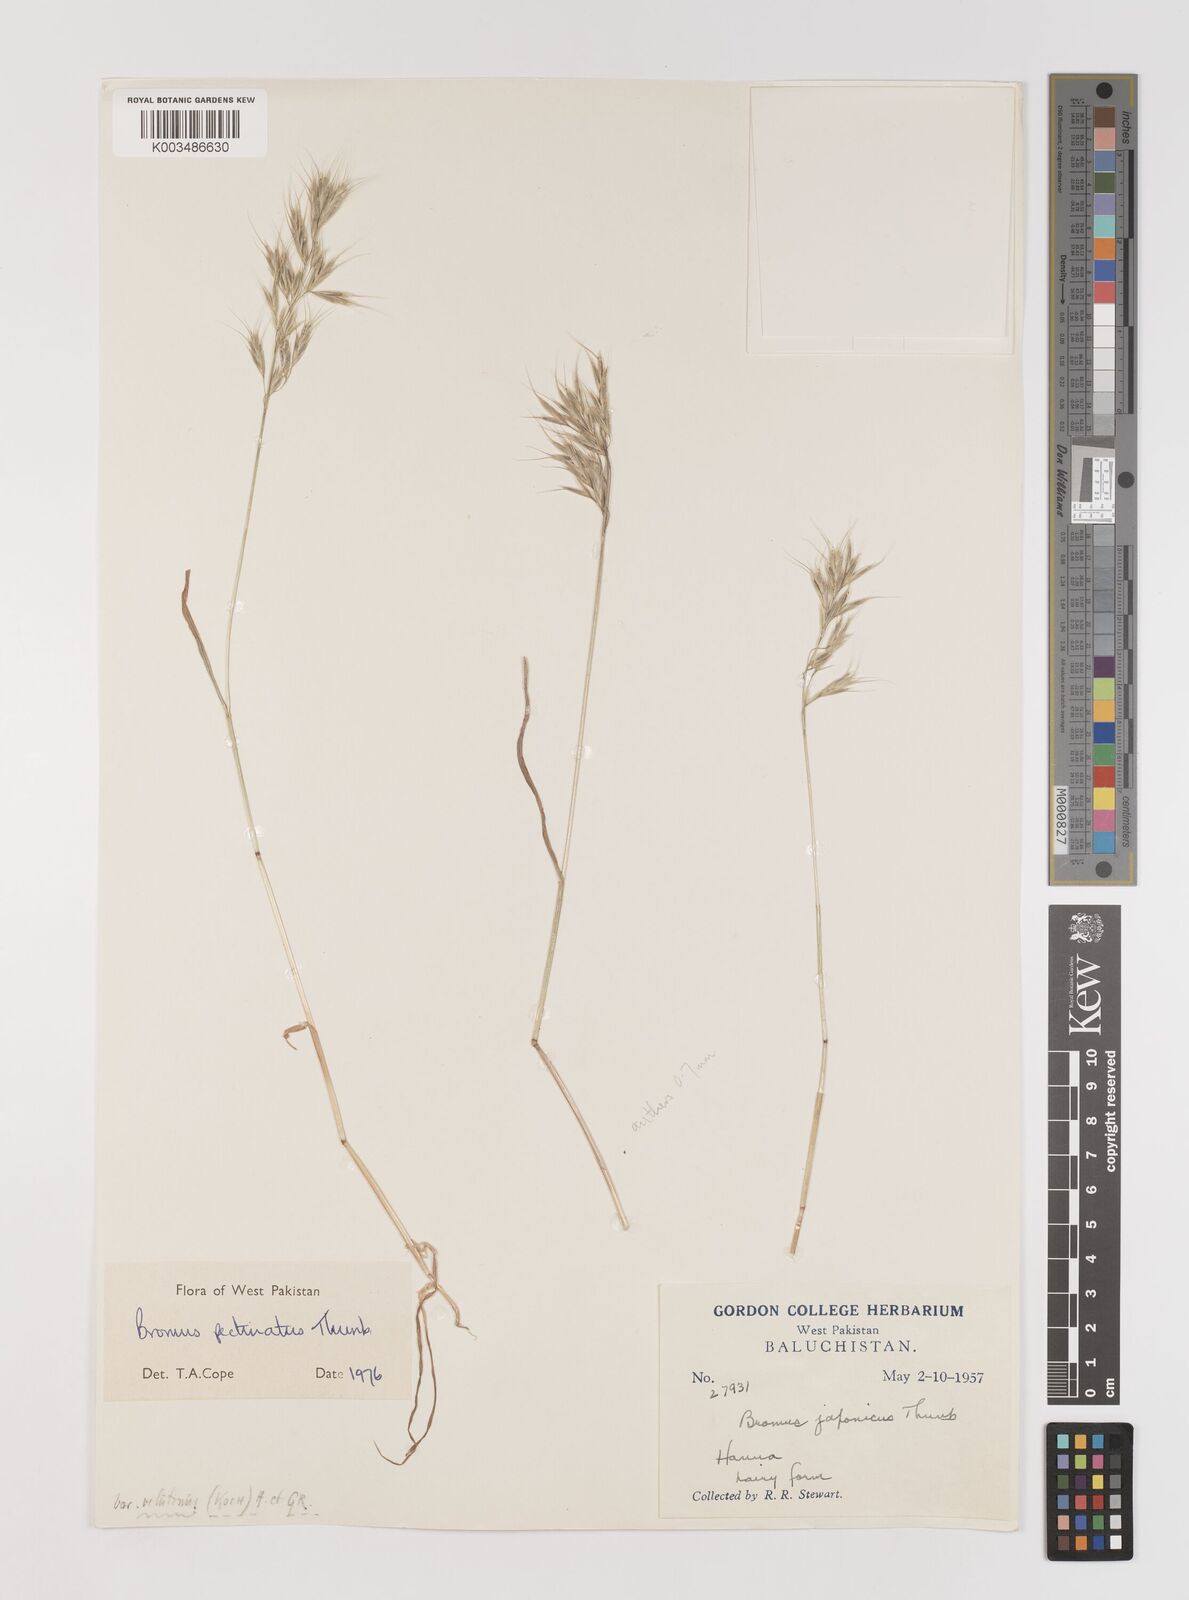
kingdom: Plantae
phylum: Tracheophyta
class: Liliopsida
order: Poales
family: Poaceae
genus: Bromus
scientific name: Bromus pectinatus
